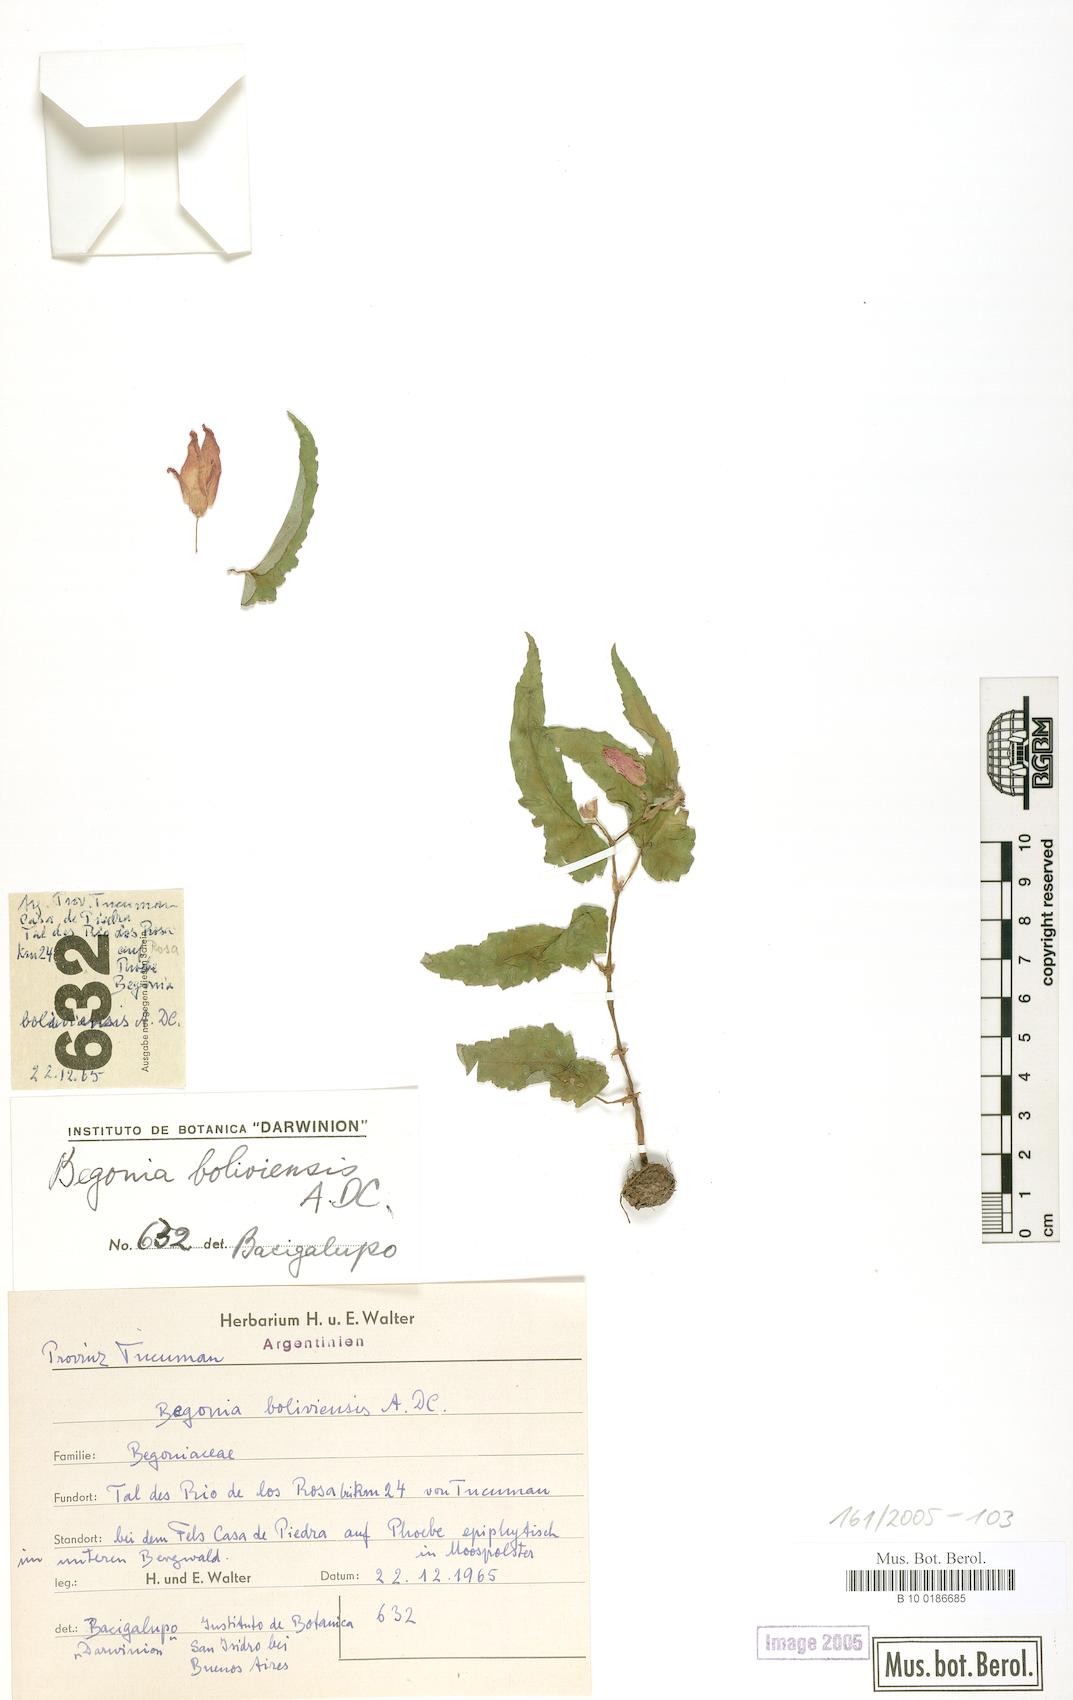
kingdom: Plantae
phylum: Tracheophyta
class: Magnoliopsida
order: Cucurbitales
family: Begoniaceae
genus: Begonia
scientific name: Begonia boliviensis
